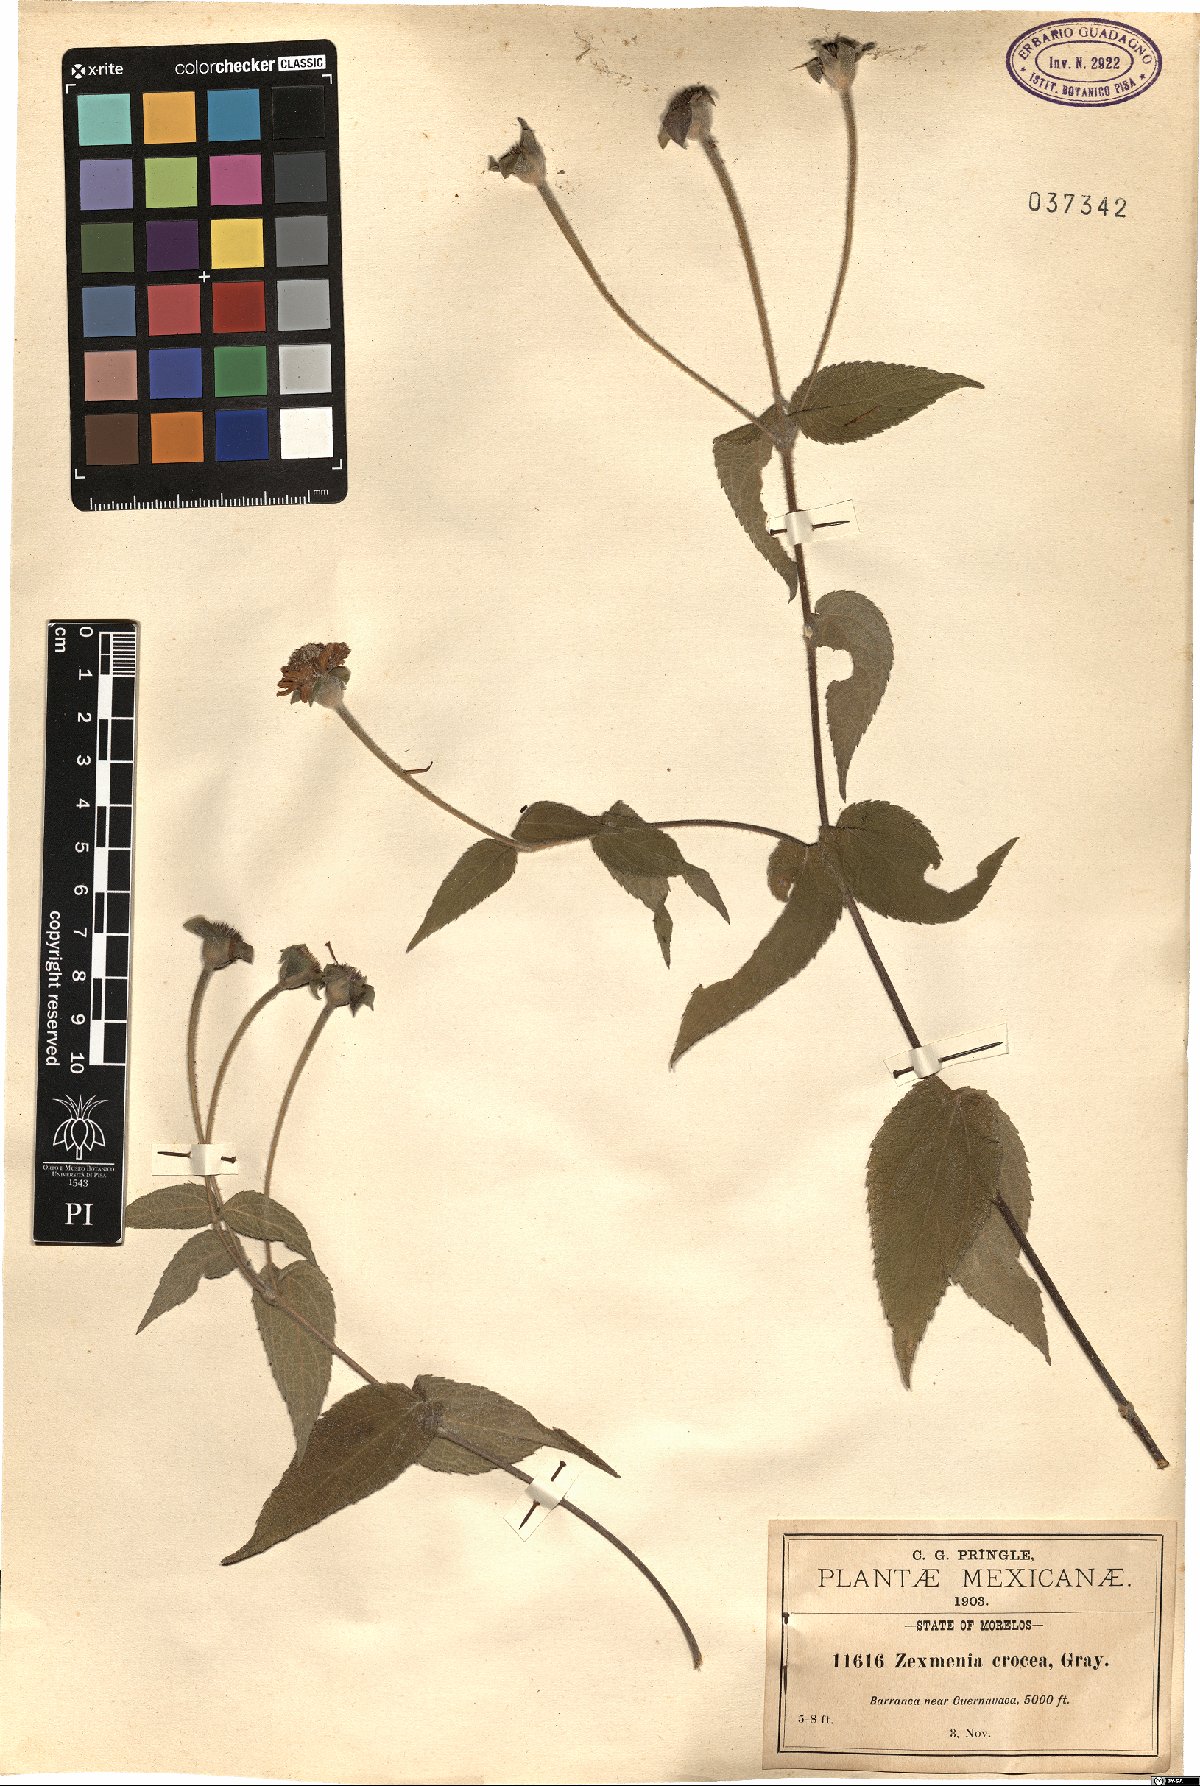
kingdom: Plantae
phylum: Tracheophyta
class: Magnoliopsida
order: Asterales
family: Asteraceae
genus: Lasianthaea
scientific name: Lasianthaea crocea
